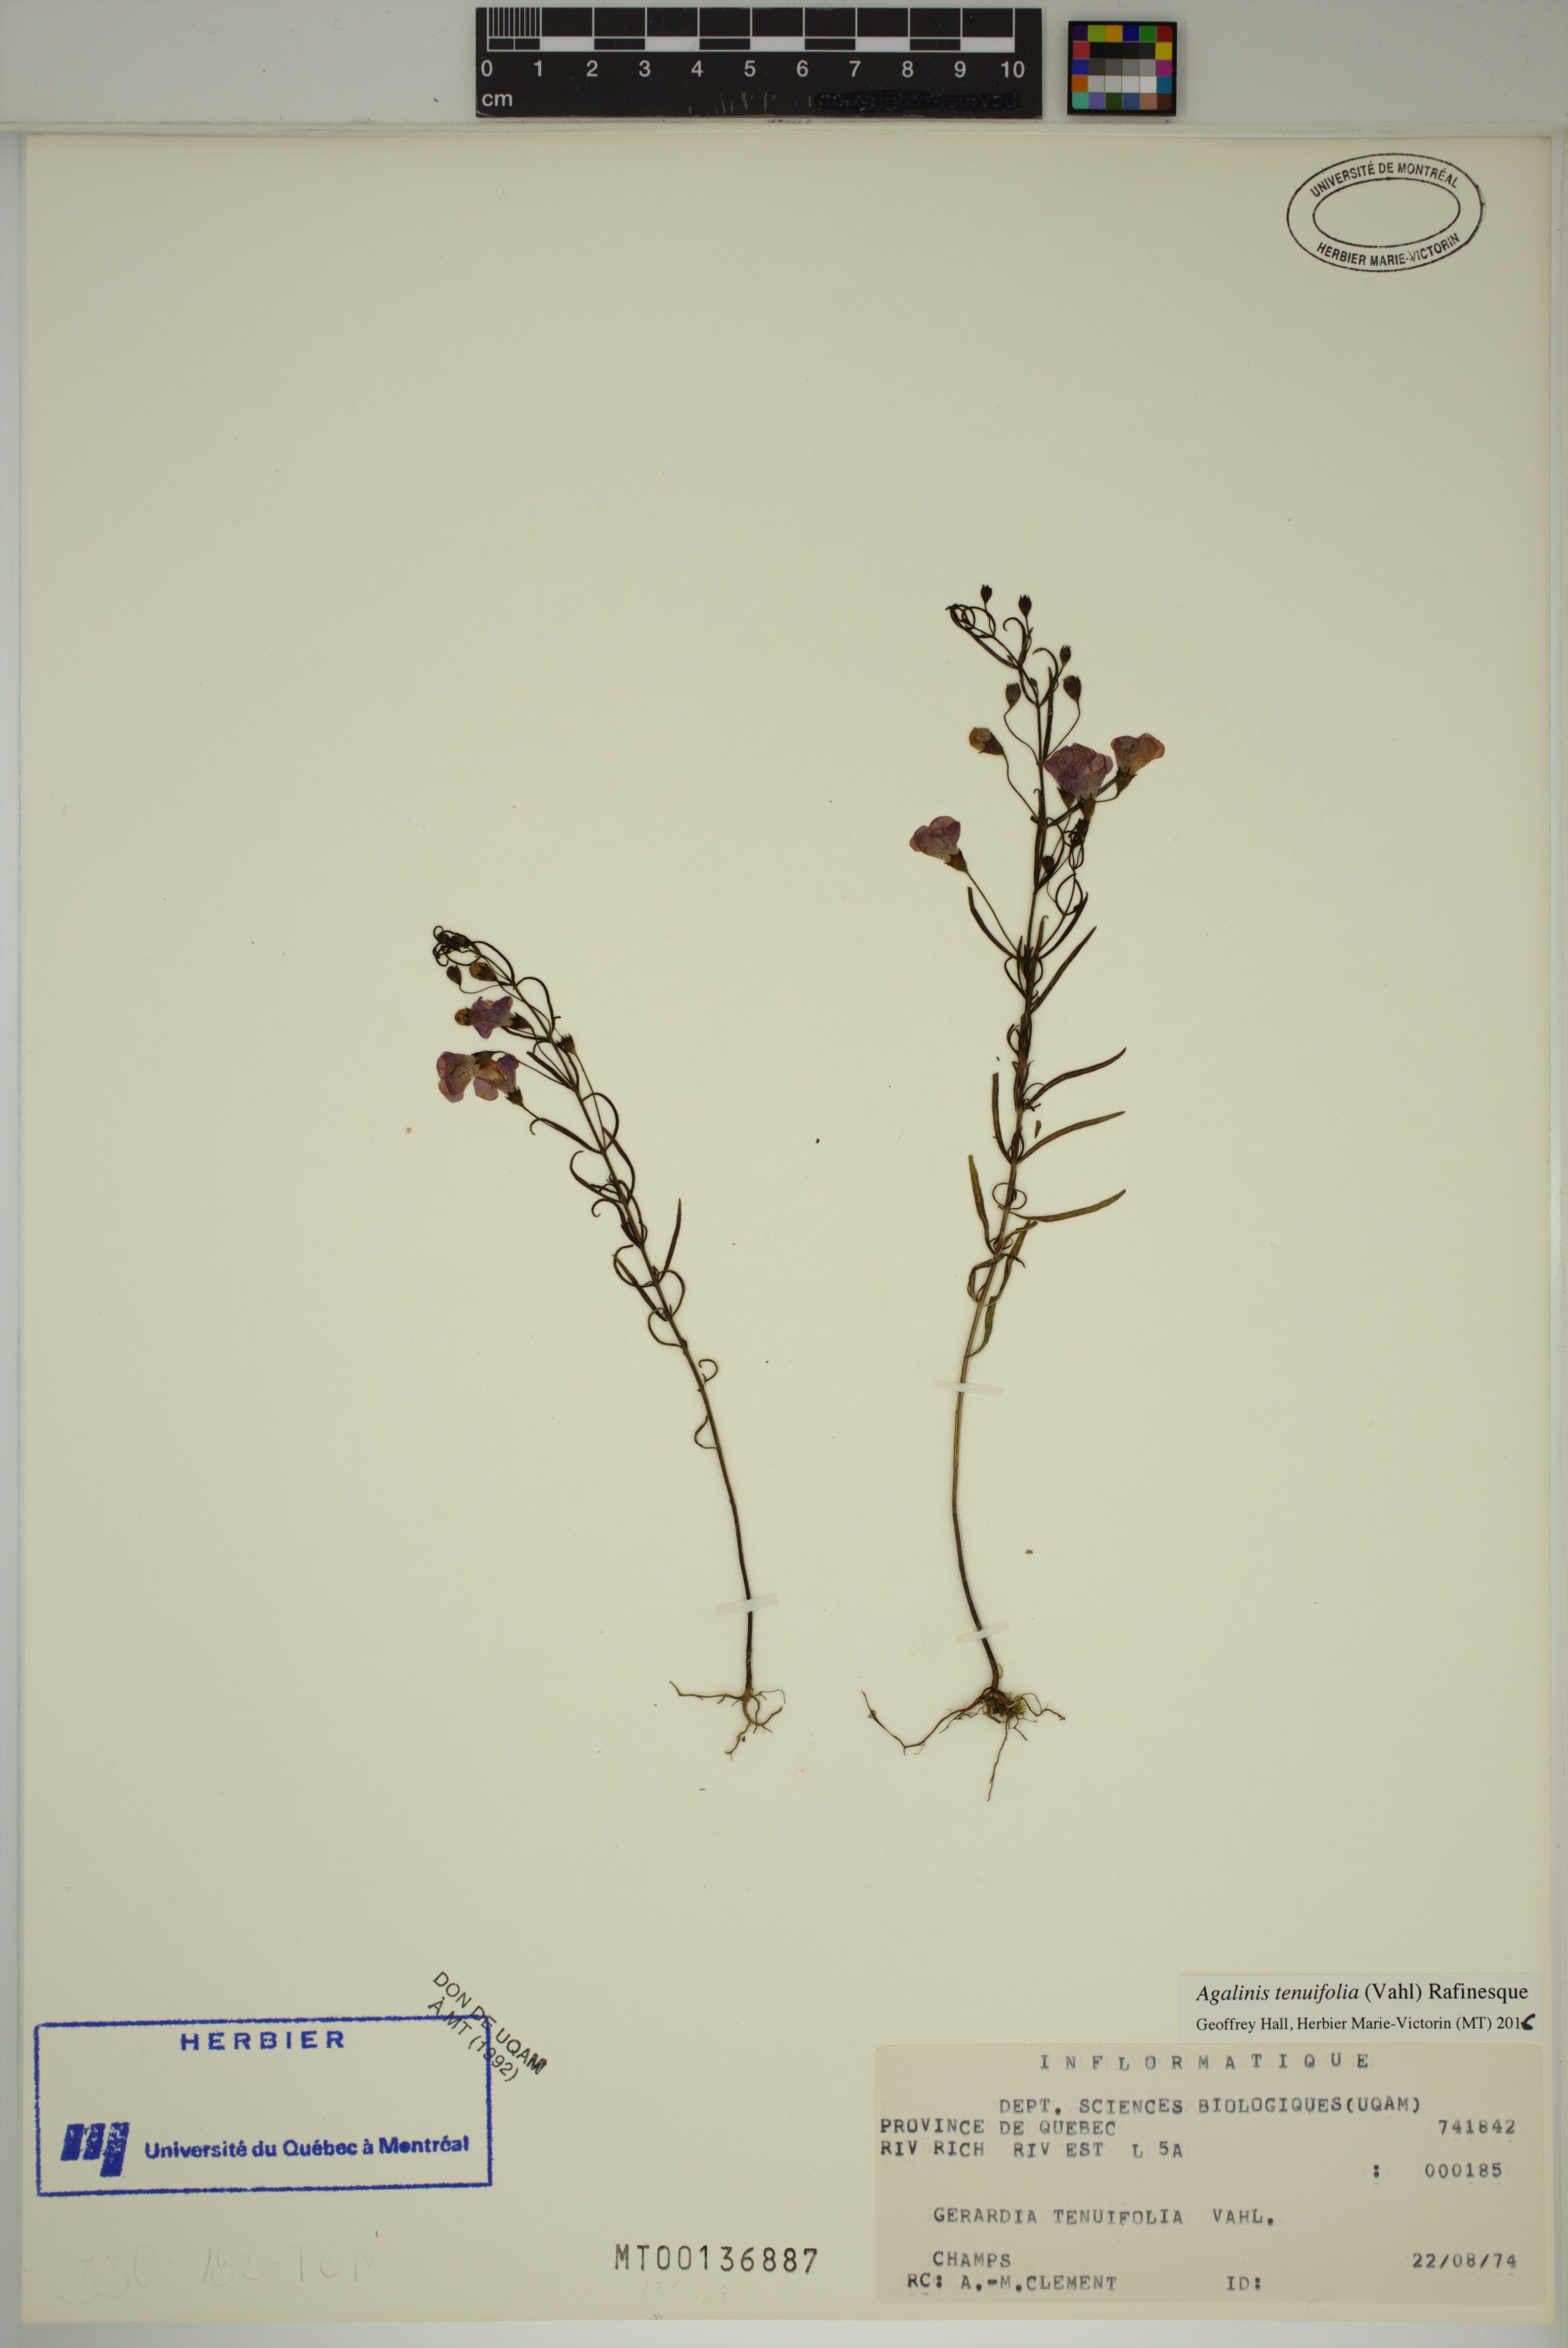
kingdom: Plantae
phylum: Tracheophyta
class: Magnoliopsida
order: Lamiales
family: Orobanchaceae
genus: Agalinis
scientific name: Agalinis tenuifolia
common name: Slender agalinis
